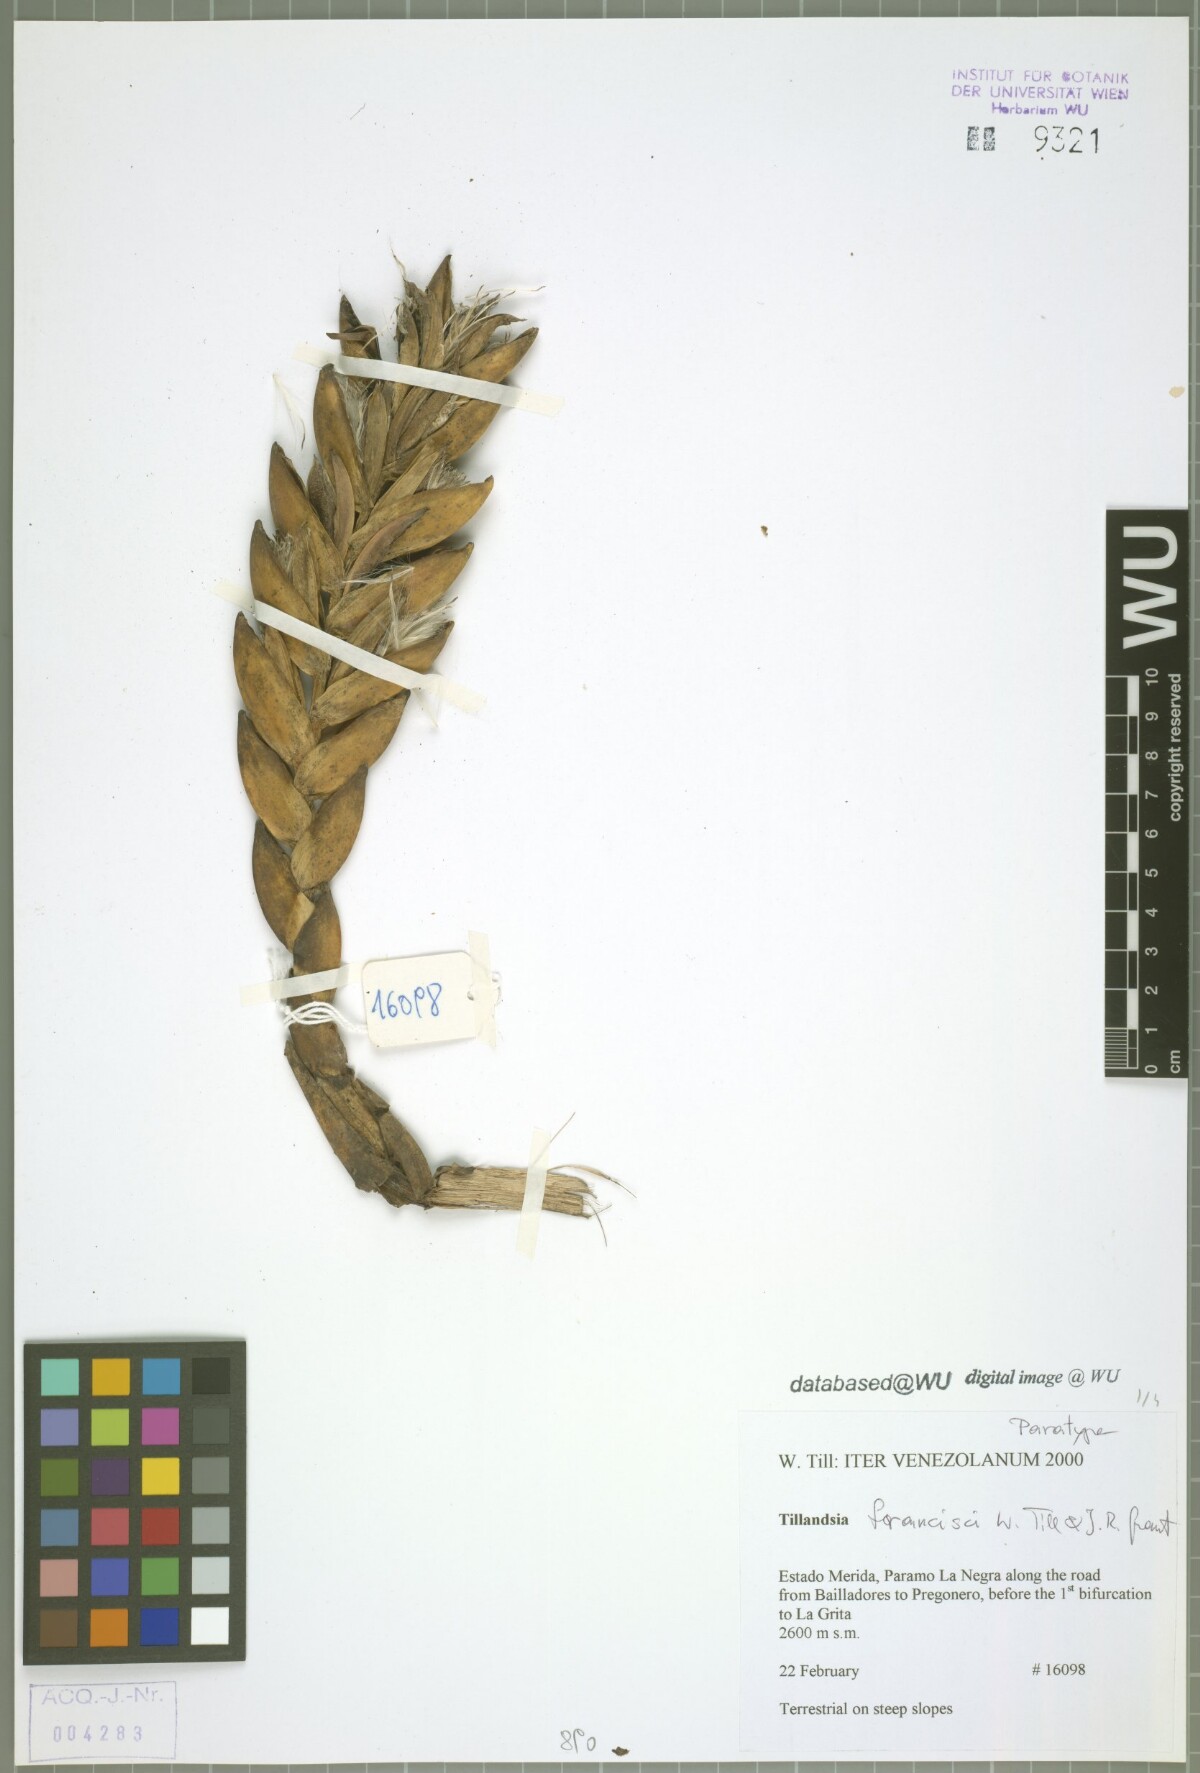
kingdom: Plantae
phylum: Tracheophyta
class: Liliopsida
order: Poales
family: Bromeliaceae
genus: Tillandsia
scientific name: Tillandsia francisci
